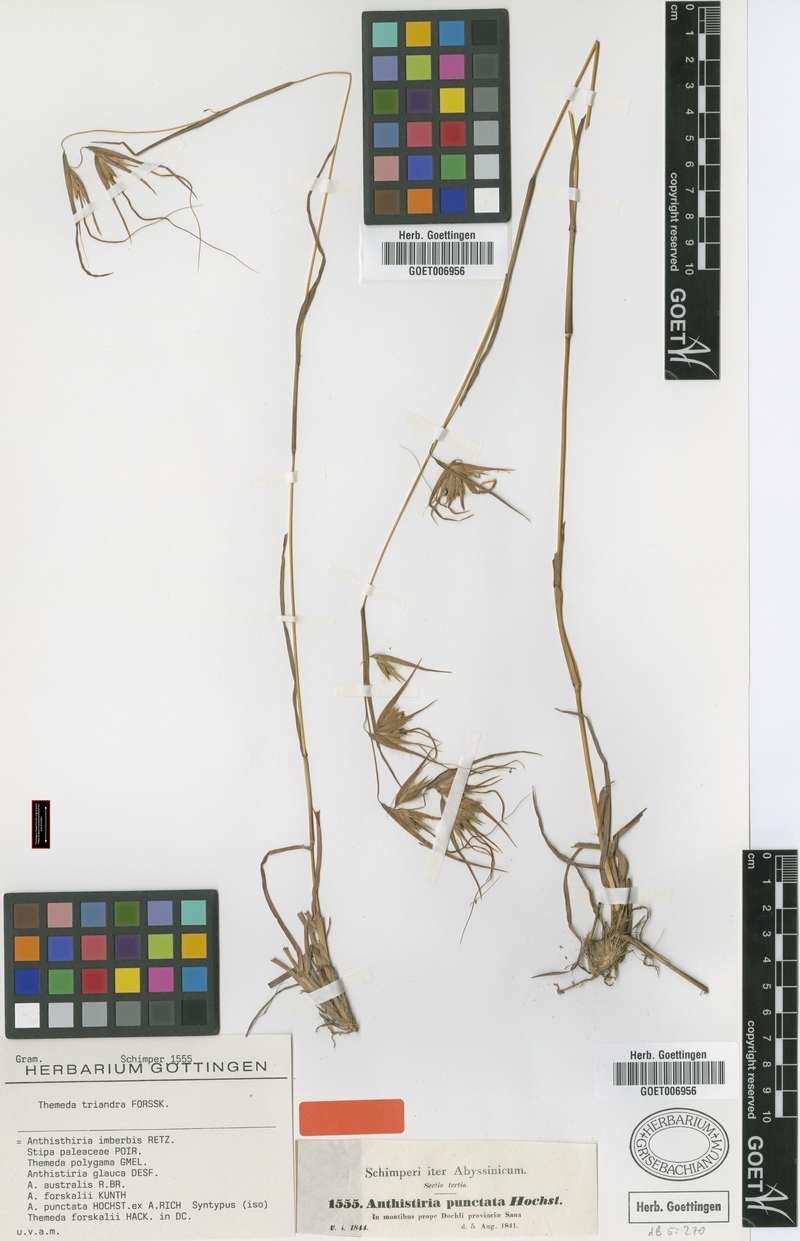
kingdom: Plantae
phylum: Tracheophyta
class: Liliopsida
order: Poales
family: Poaceae
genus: Themeda
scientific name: Themeda triandra
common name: Kangaroo grass
